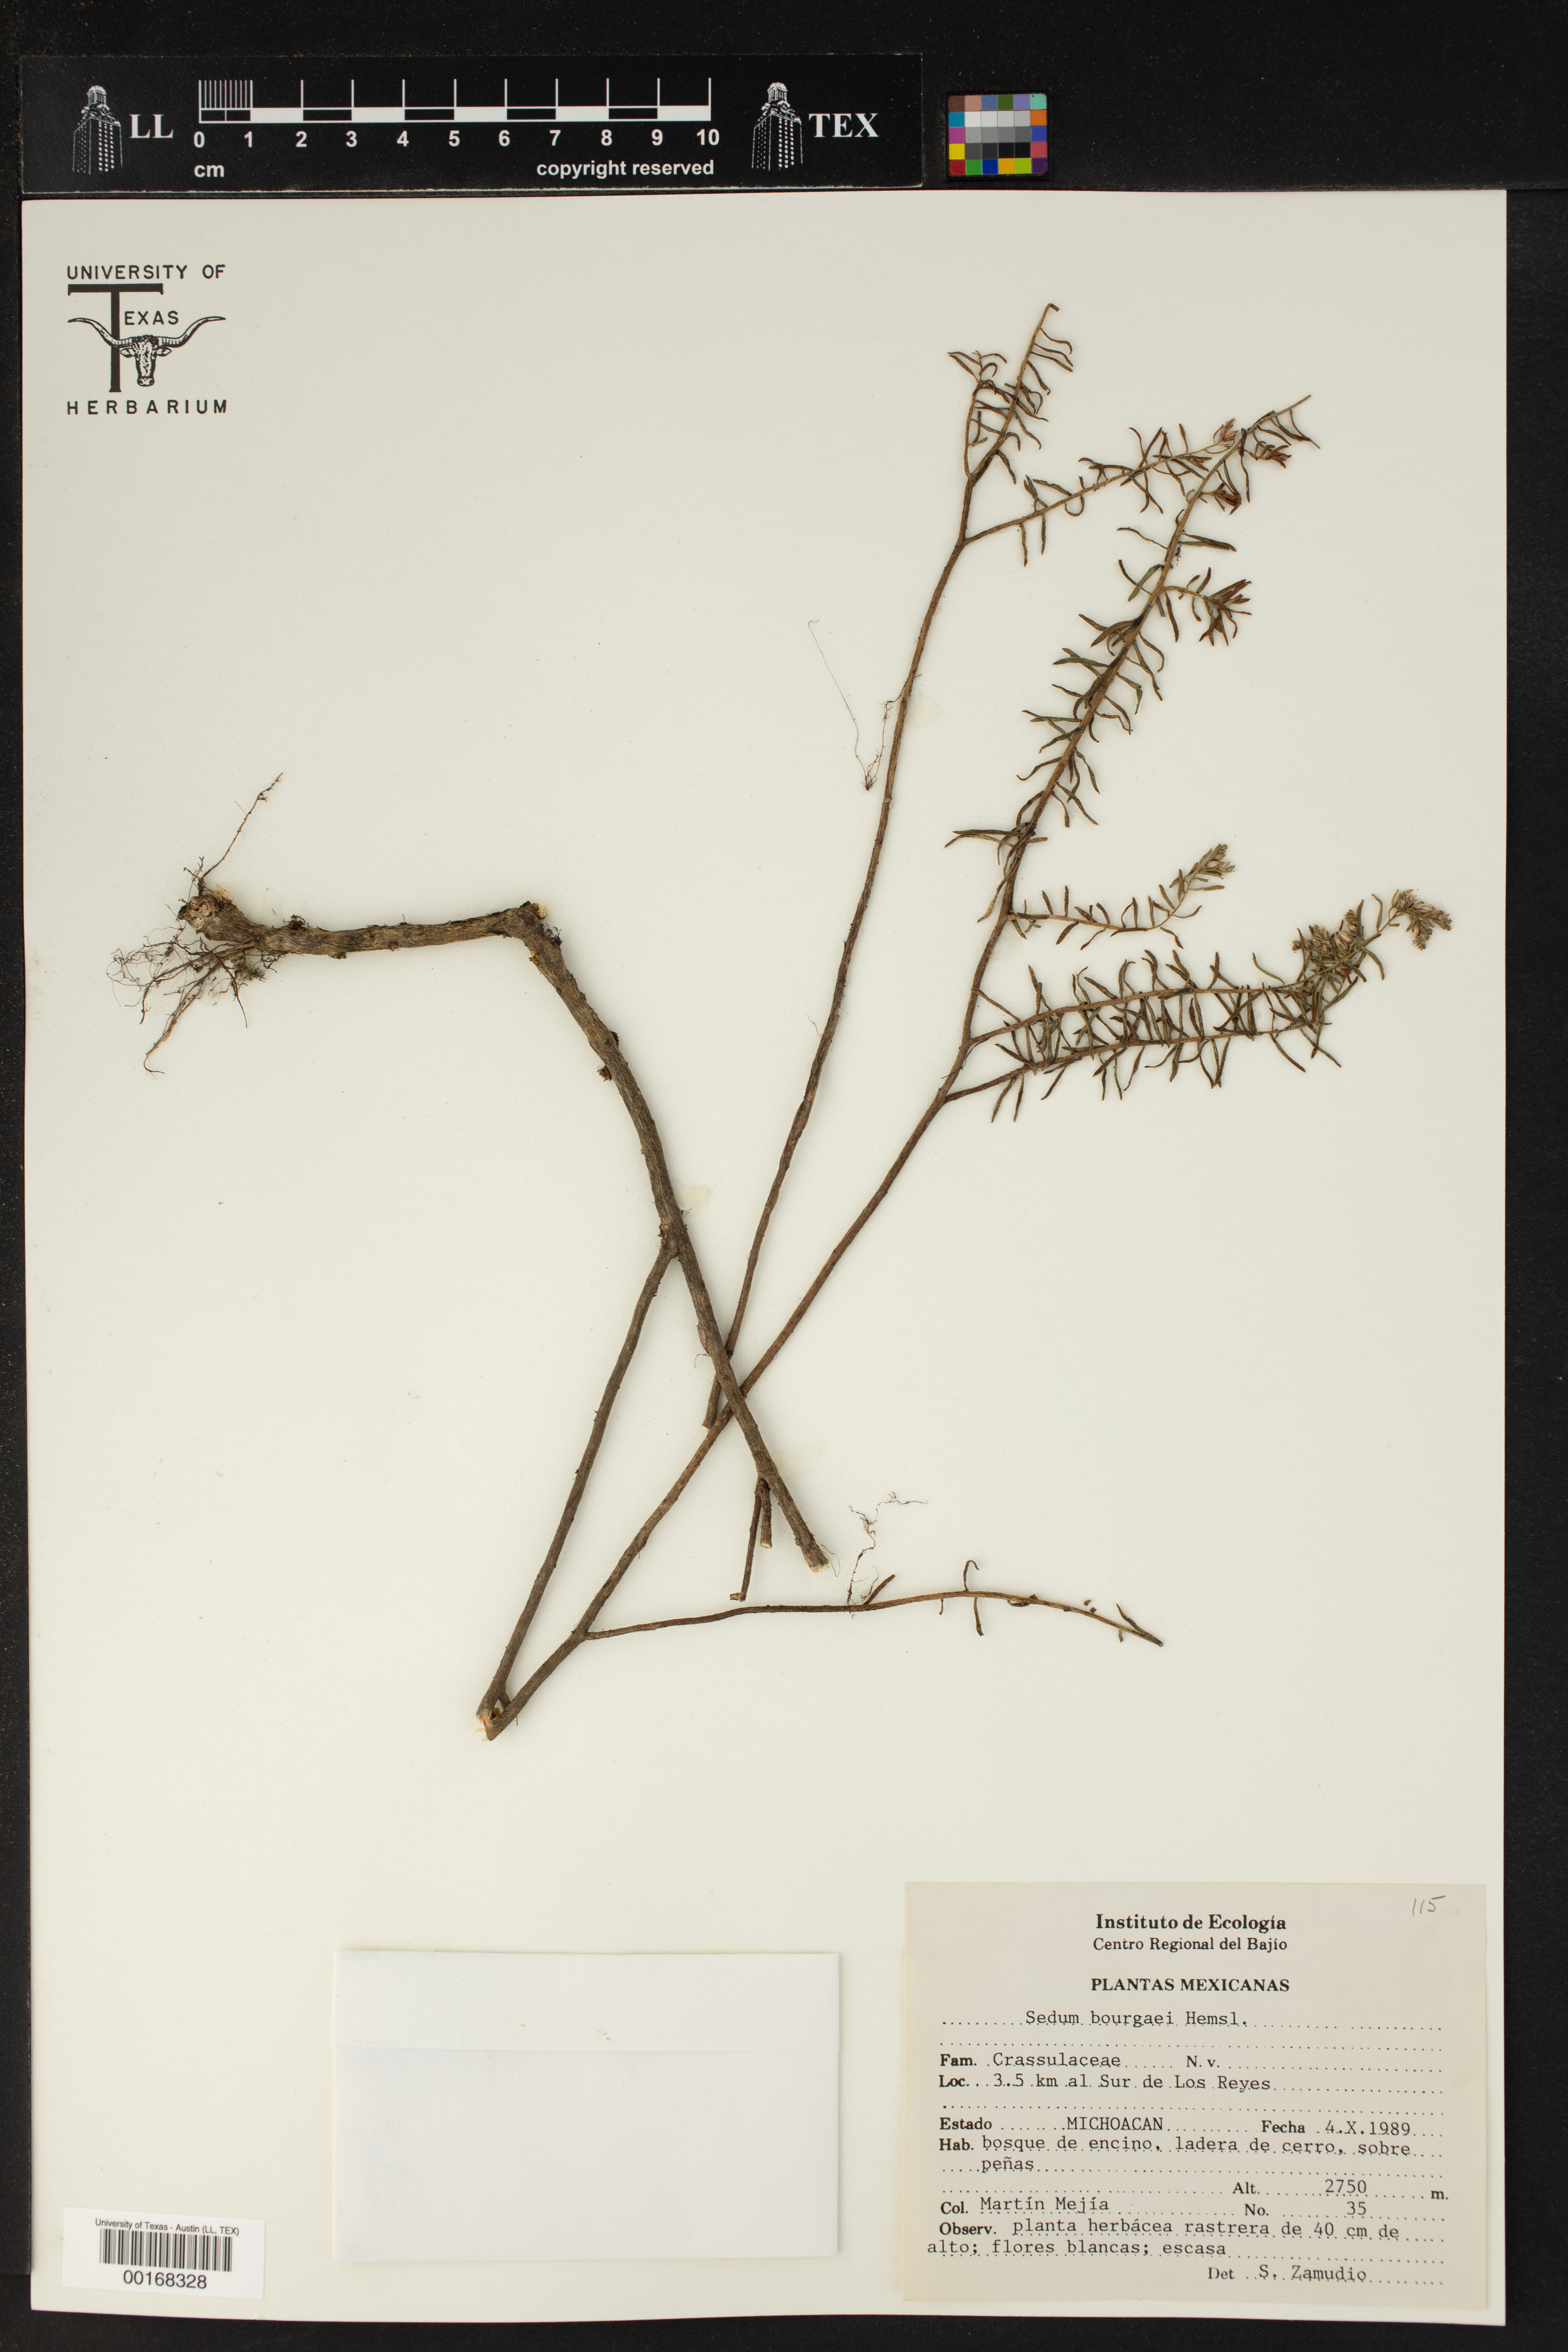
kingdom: Plantae
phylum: Tracheophyta
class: Magnoliopsida
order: Saxifragales
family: Crassulaceae
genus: Sedum
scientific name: Sedum bourgaei
